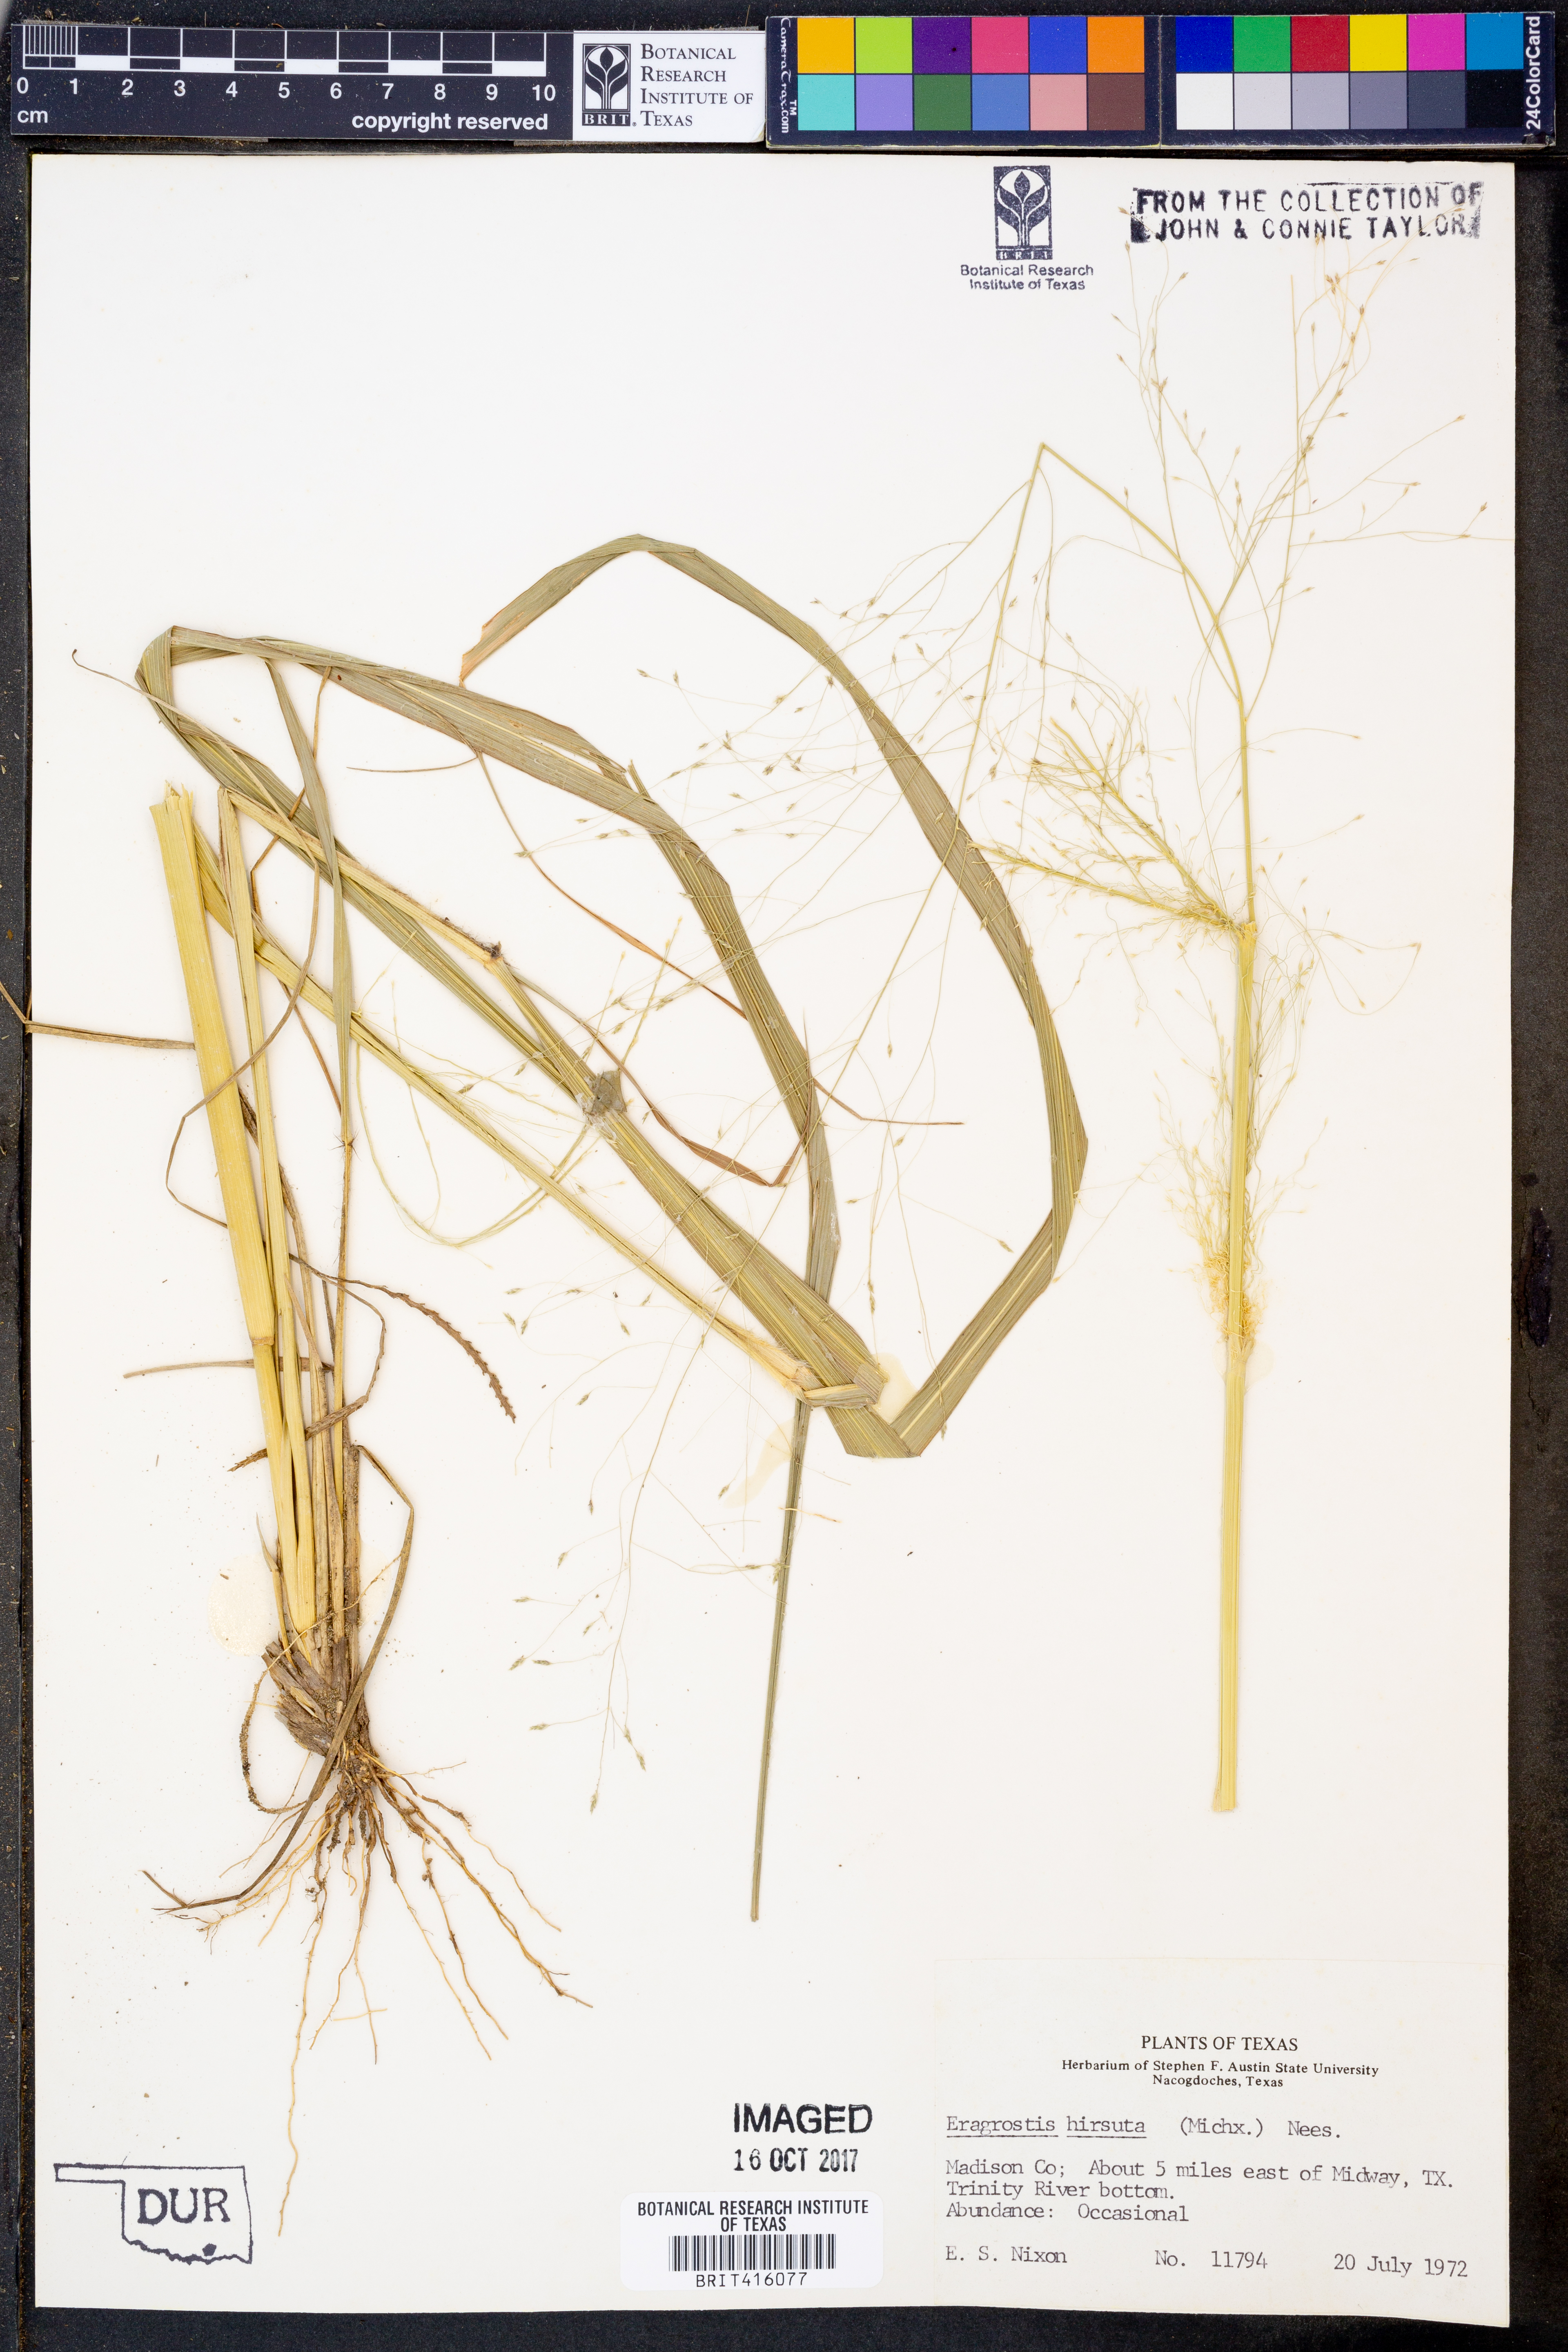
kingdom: Plantae
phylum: Tracheophyta
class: Liliopsida
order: Poales
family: Poaceae
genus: Eragrostis
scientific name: Eragrostis hirsuta
